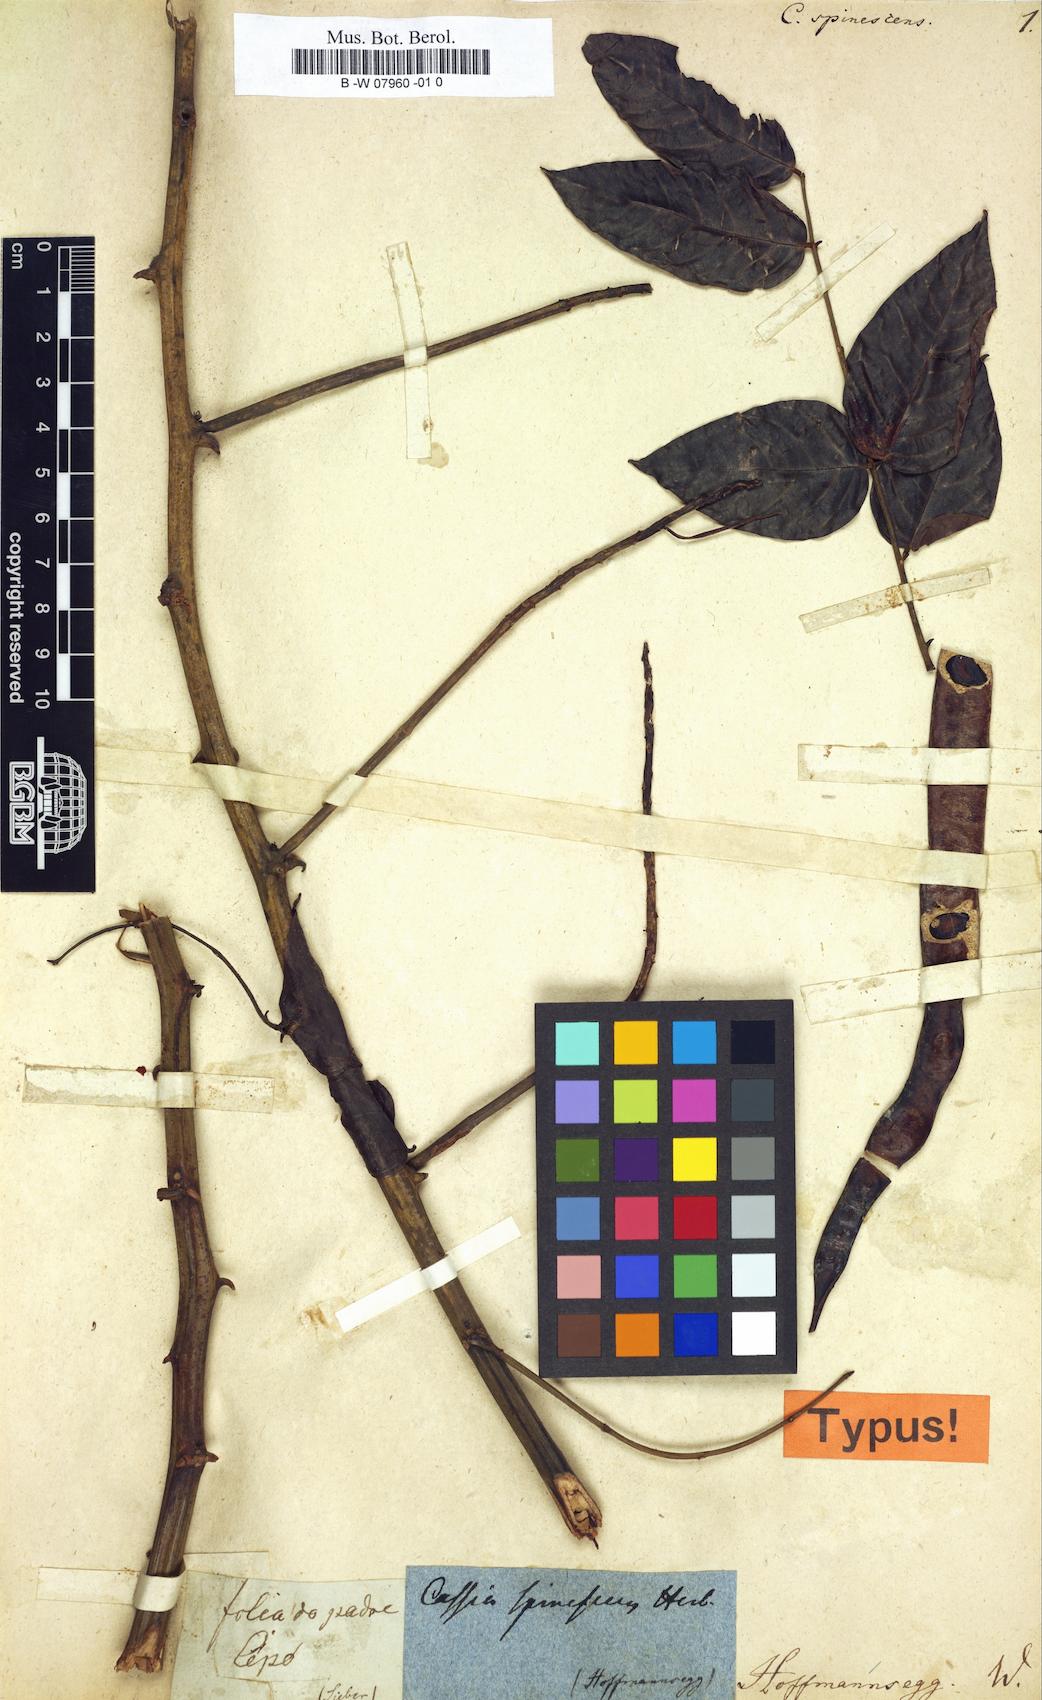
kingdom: Plantae
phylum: Tracheophyta
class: Magnoliopsida
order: Fabales
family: Fabaceae
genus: Senna
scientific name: Senna spinescens
